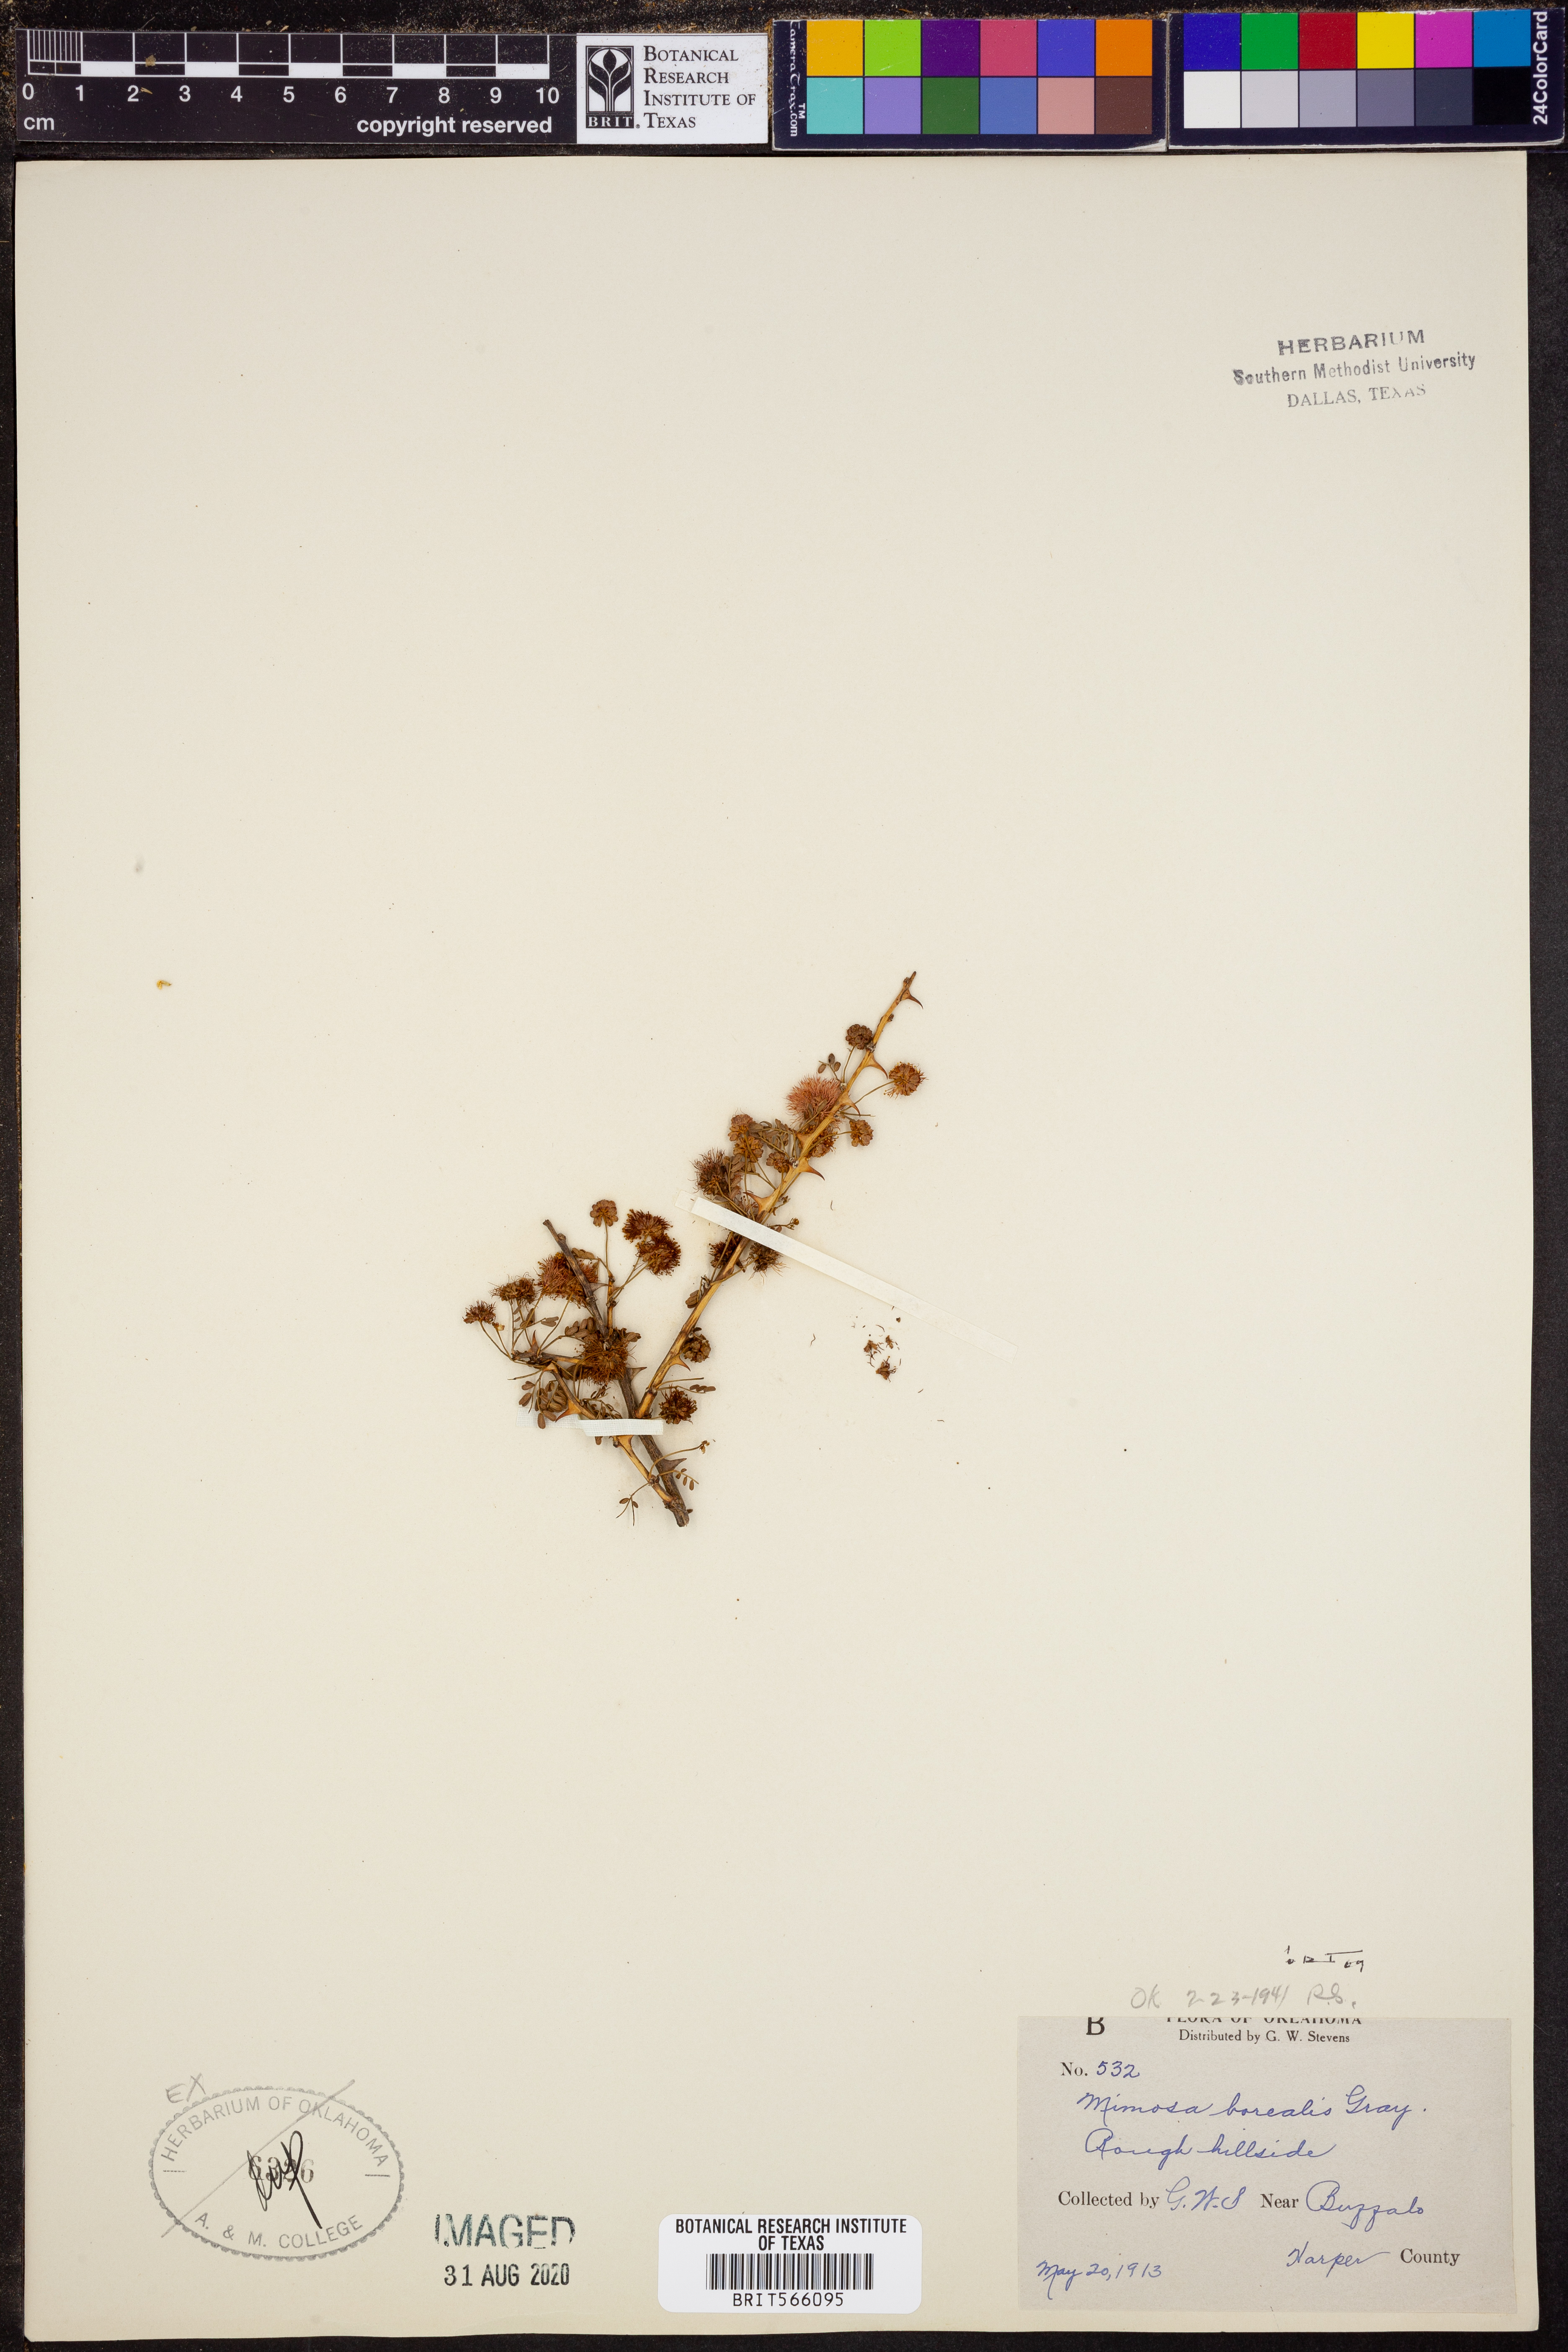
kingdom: Plantae
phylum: Tracheophyta
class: Magnoliopsida
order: Fabales
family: Fabaceae
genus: Mimosa
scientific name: Mimosa borealis
